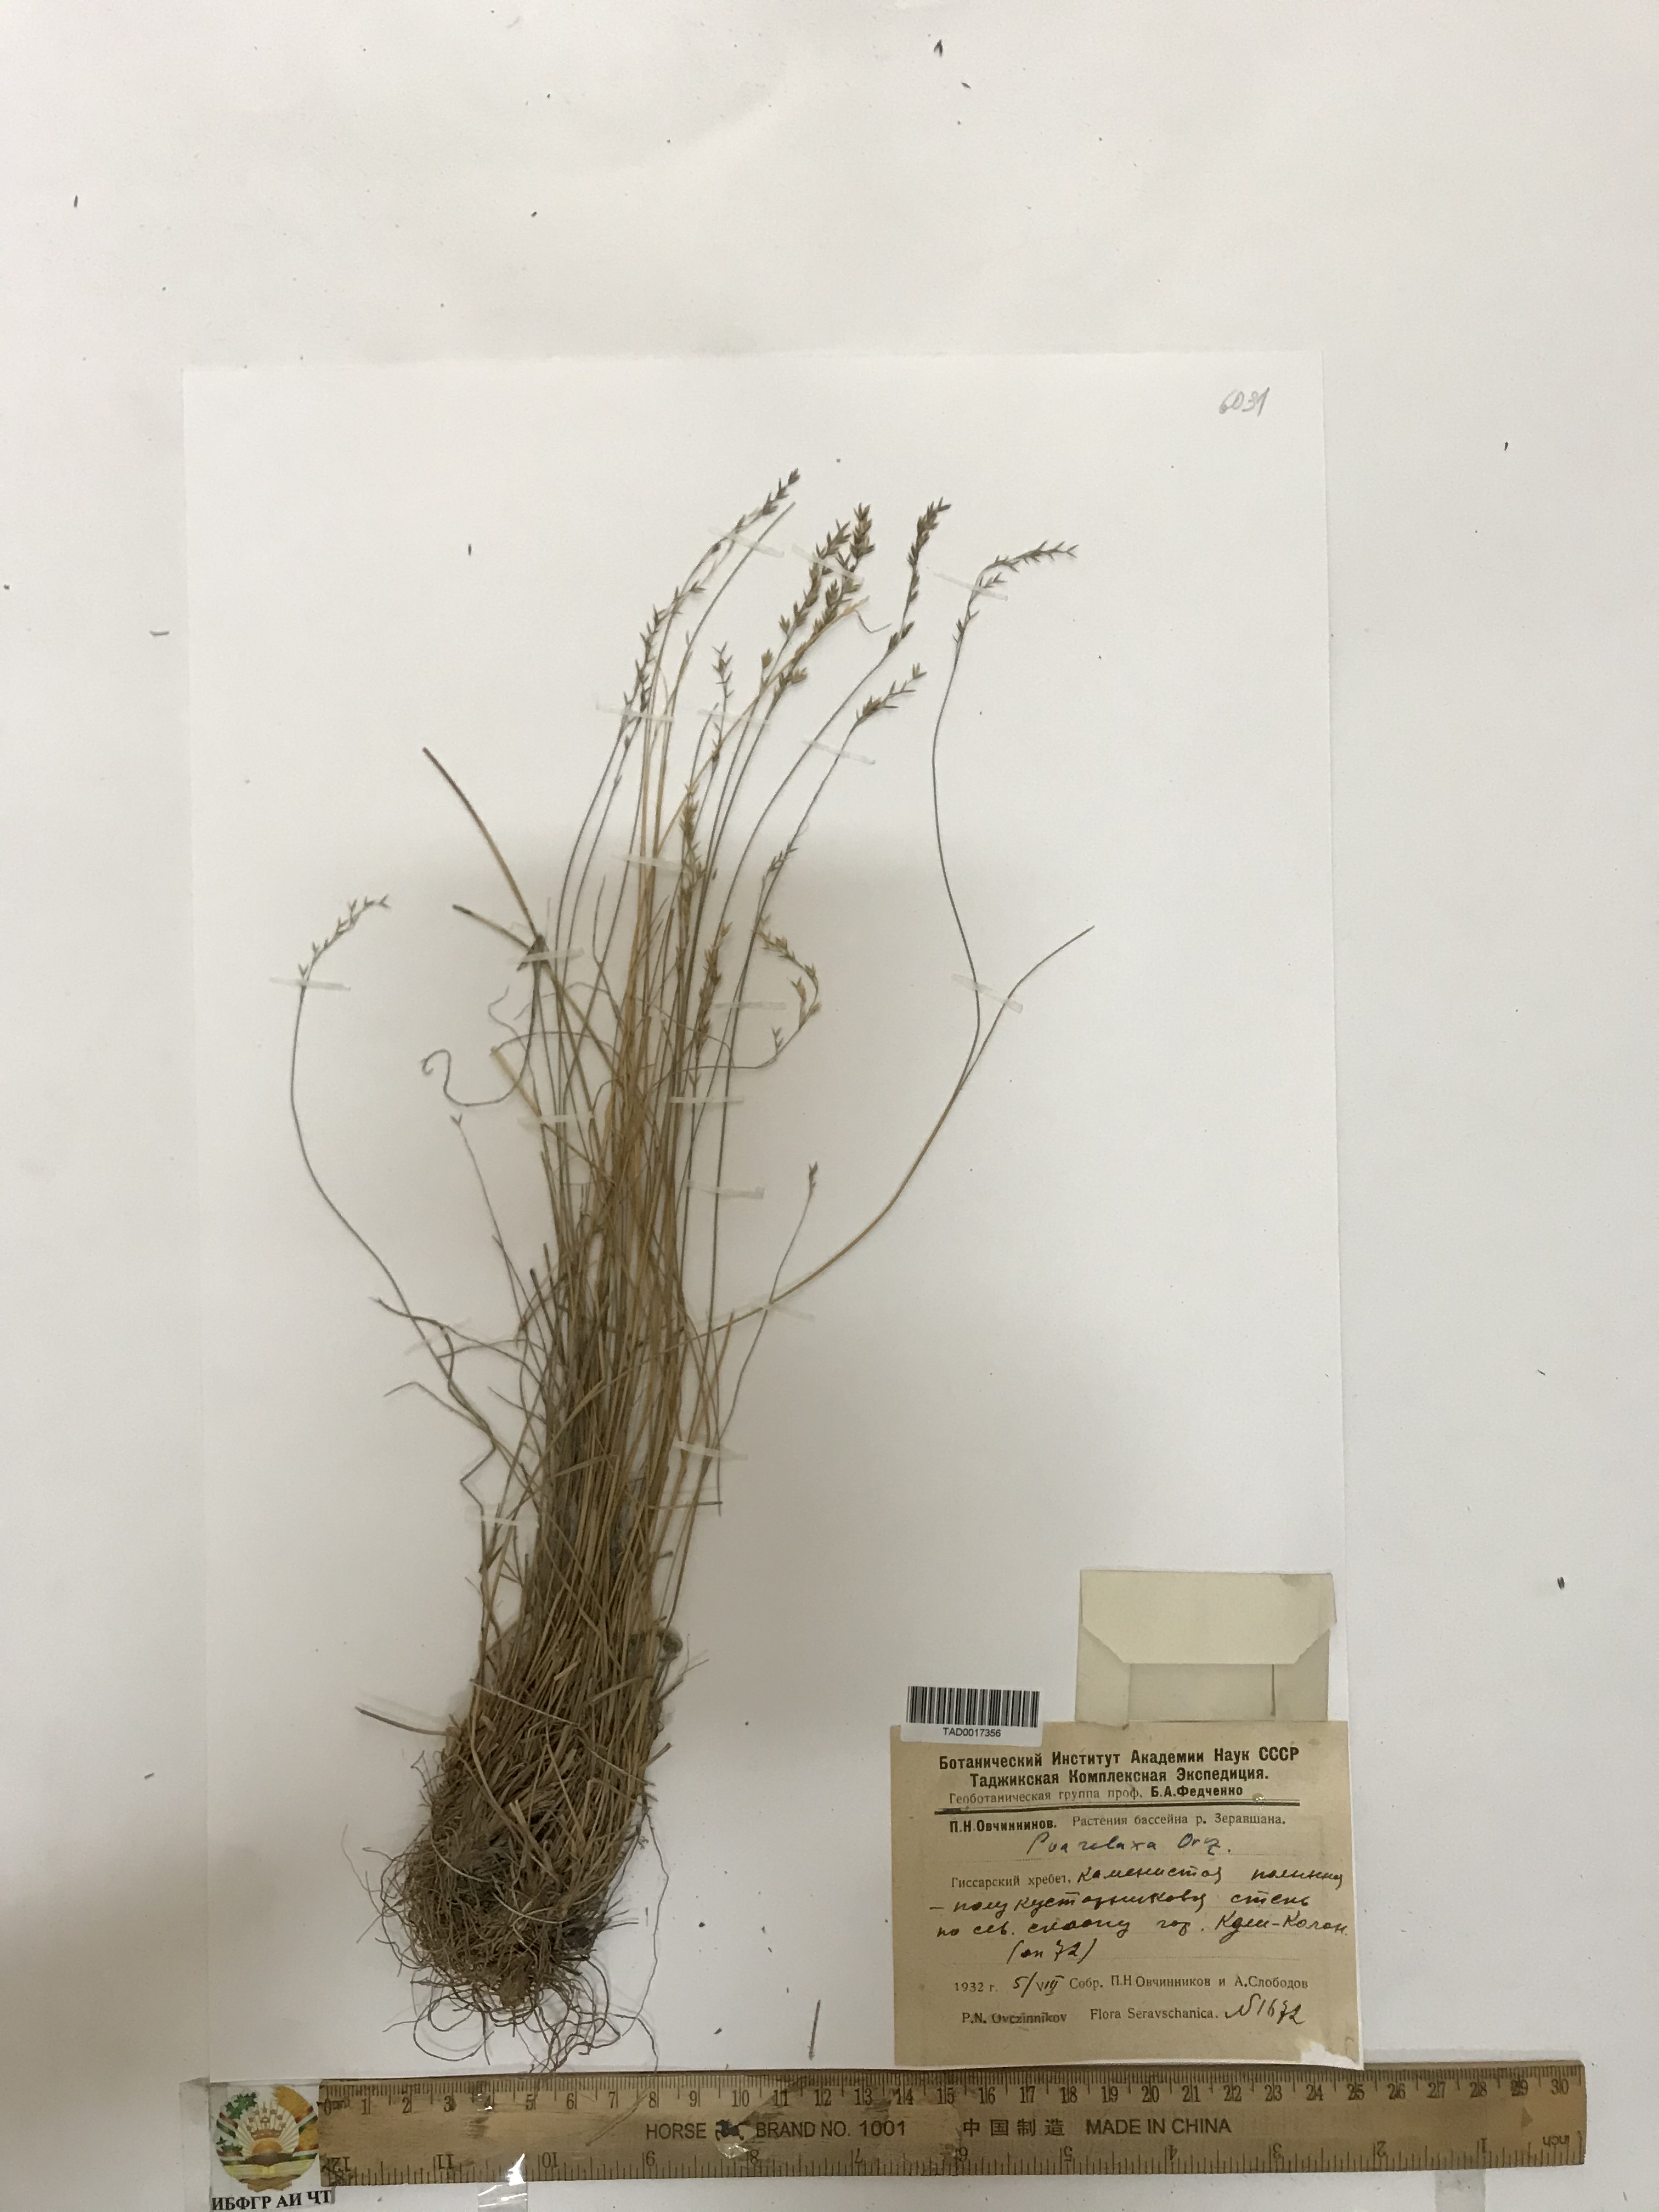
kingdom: Plantae
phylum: Tracheophyta
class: Liliopsida
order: Poales
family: Poaceae
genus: Poa
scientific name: Poa reflexa
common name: Nodding bluegrass
